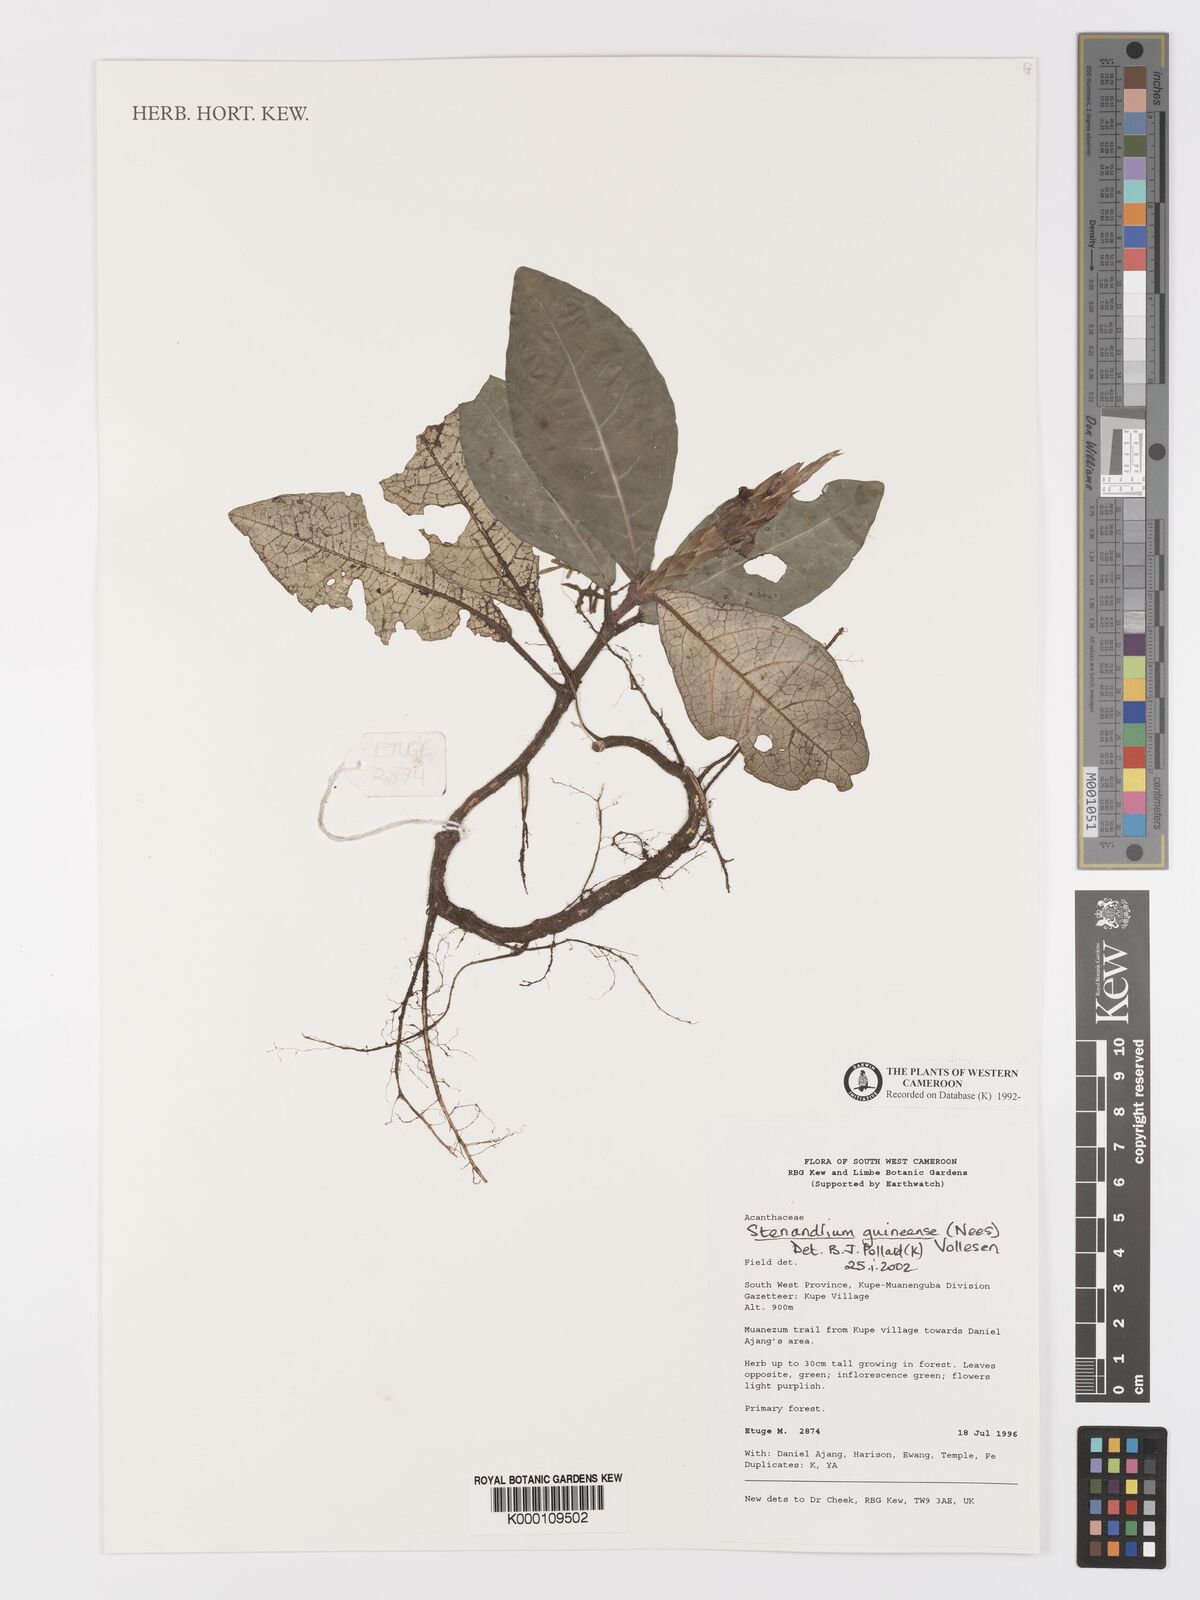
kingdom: Plantae
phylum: Tracheophyta
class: Magnoliopsida
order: Lamiales
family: Acanthaceae
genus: Stenandriopsis
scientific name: Stenandriopsis guineensis
